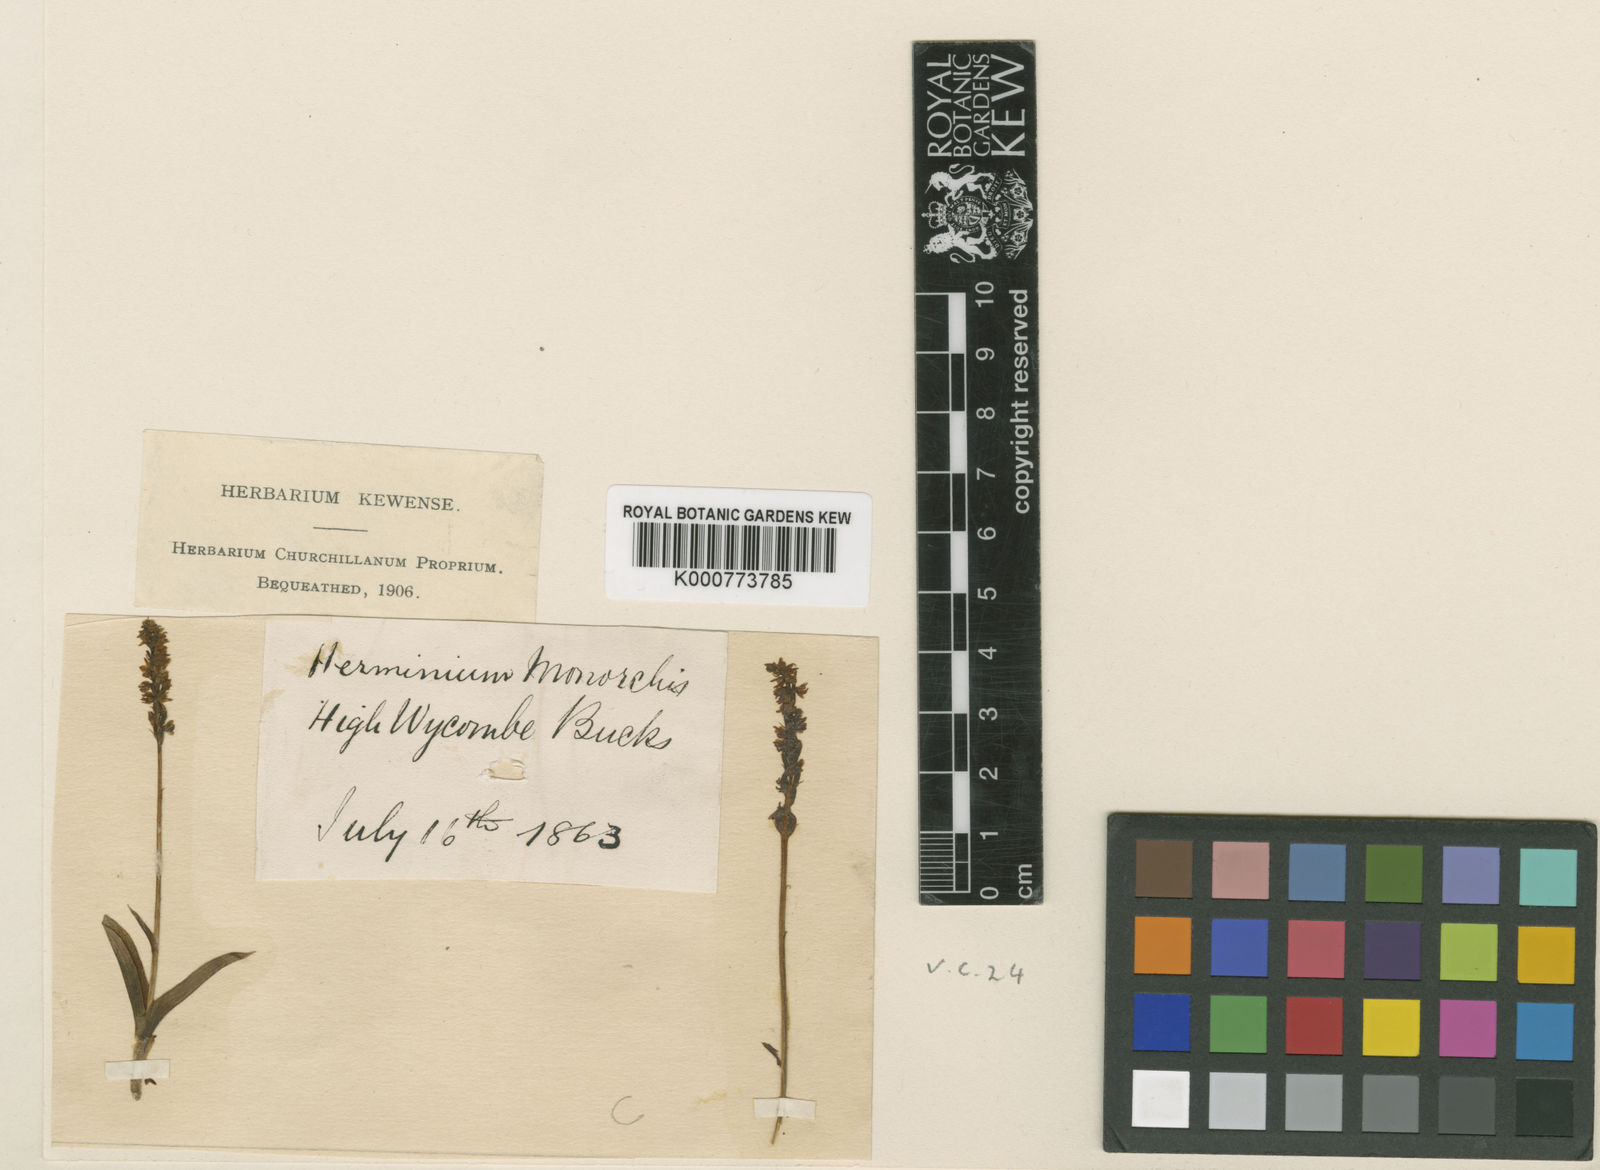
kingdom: Plantae
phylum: Tracheophyta
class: Liliopsida
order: Asparagales
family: Orchidaceae
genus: Herminium
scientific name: Herminium monorchis
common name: Musk orchid
